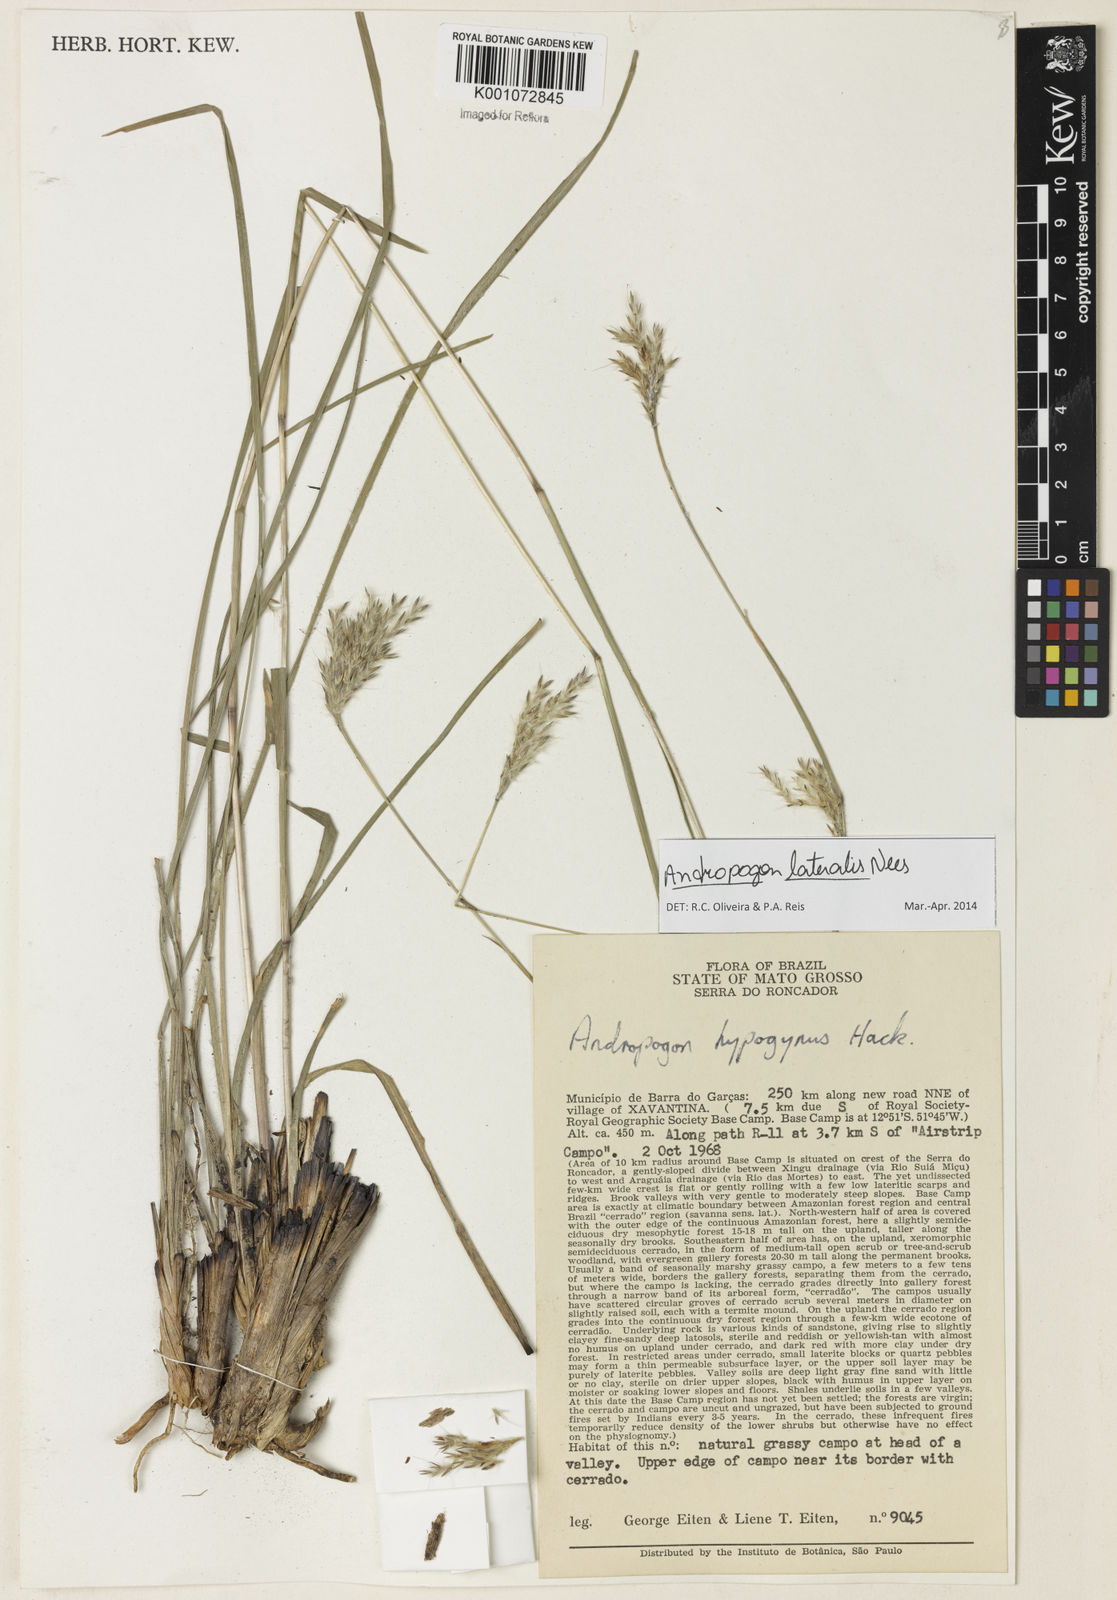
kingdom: Plantae
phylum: Tracheophyta
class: Liliopsida
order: Poales
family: Poaceae
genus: Andropogon
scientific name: Andropogon lateralis
